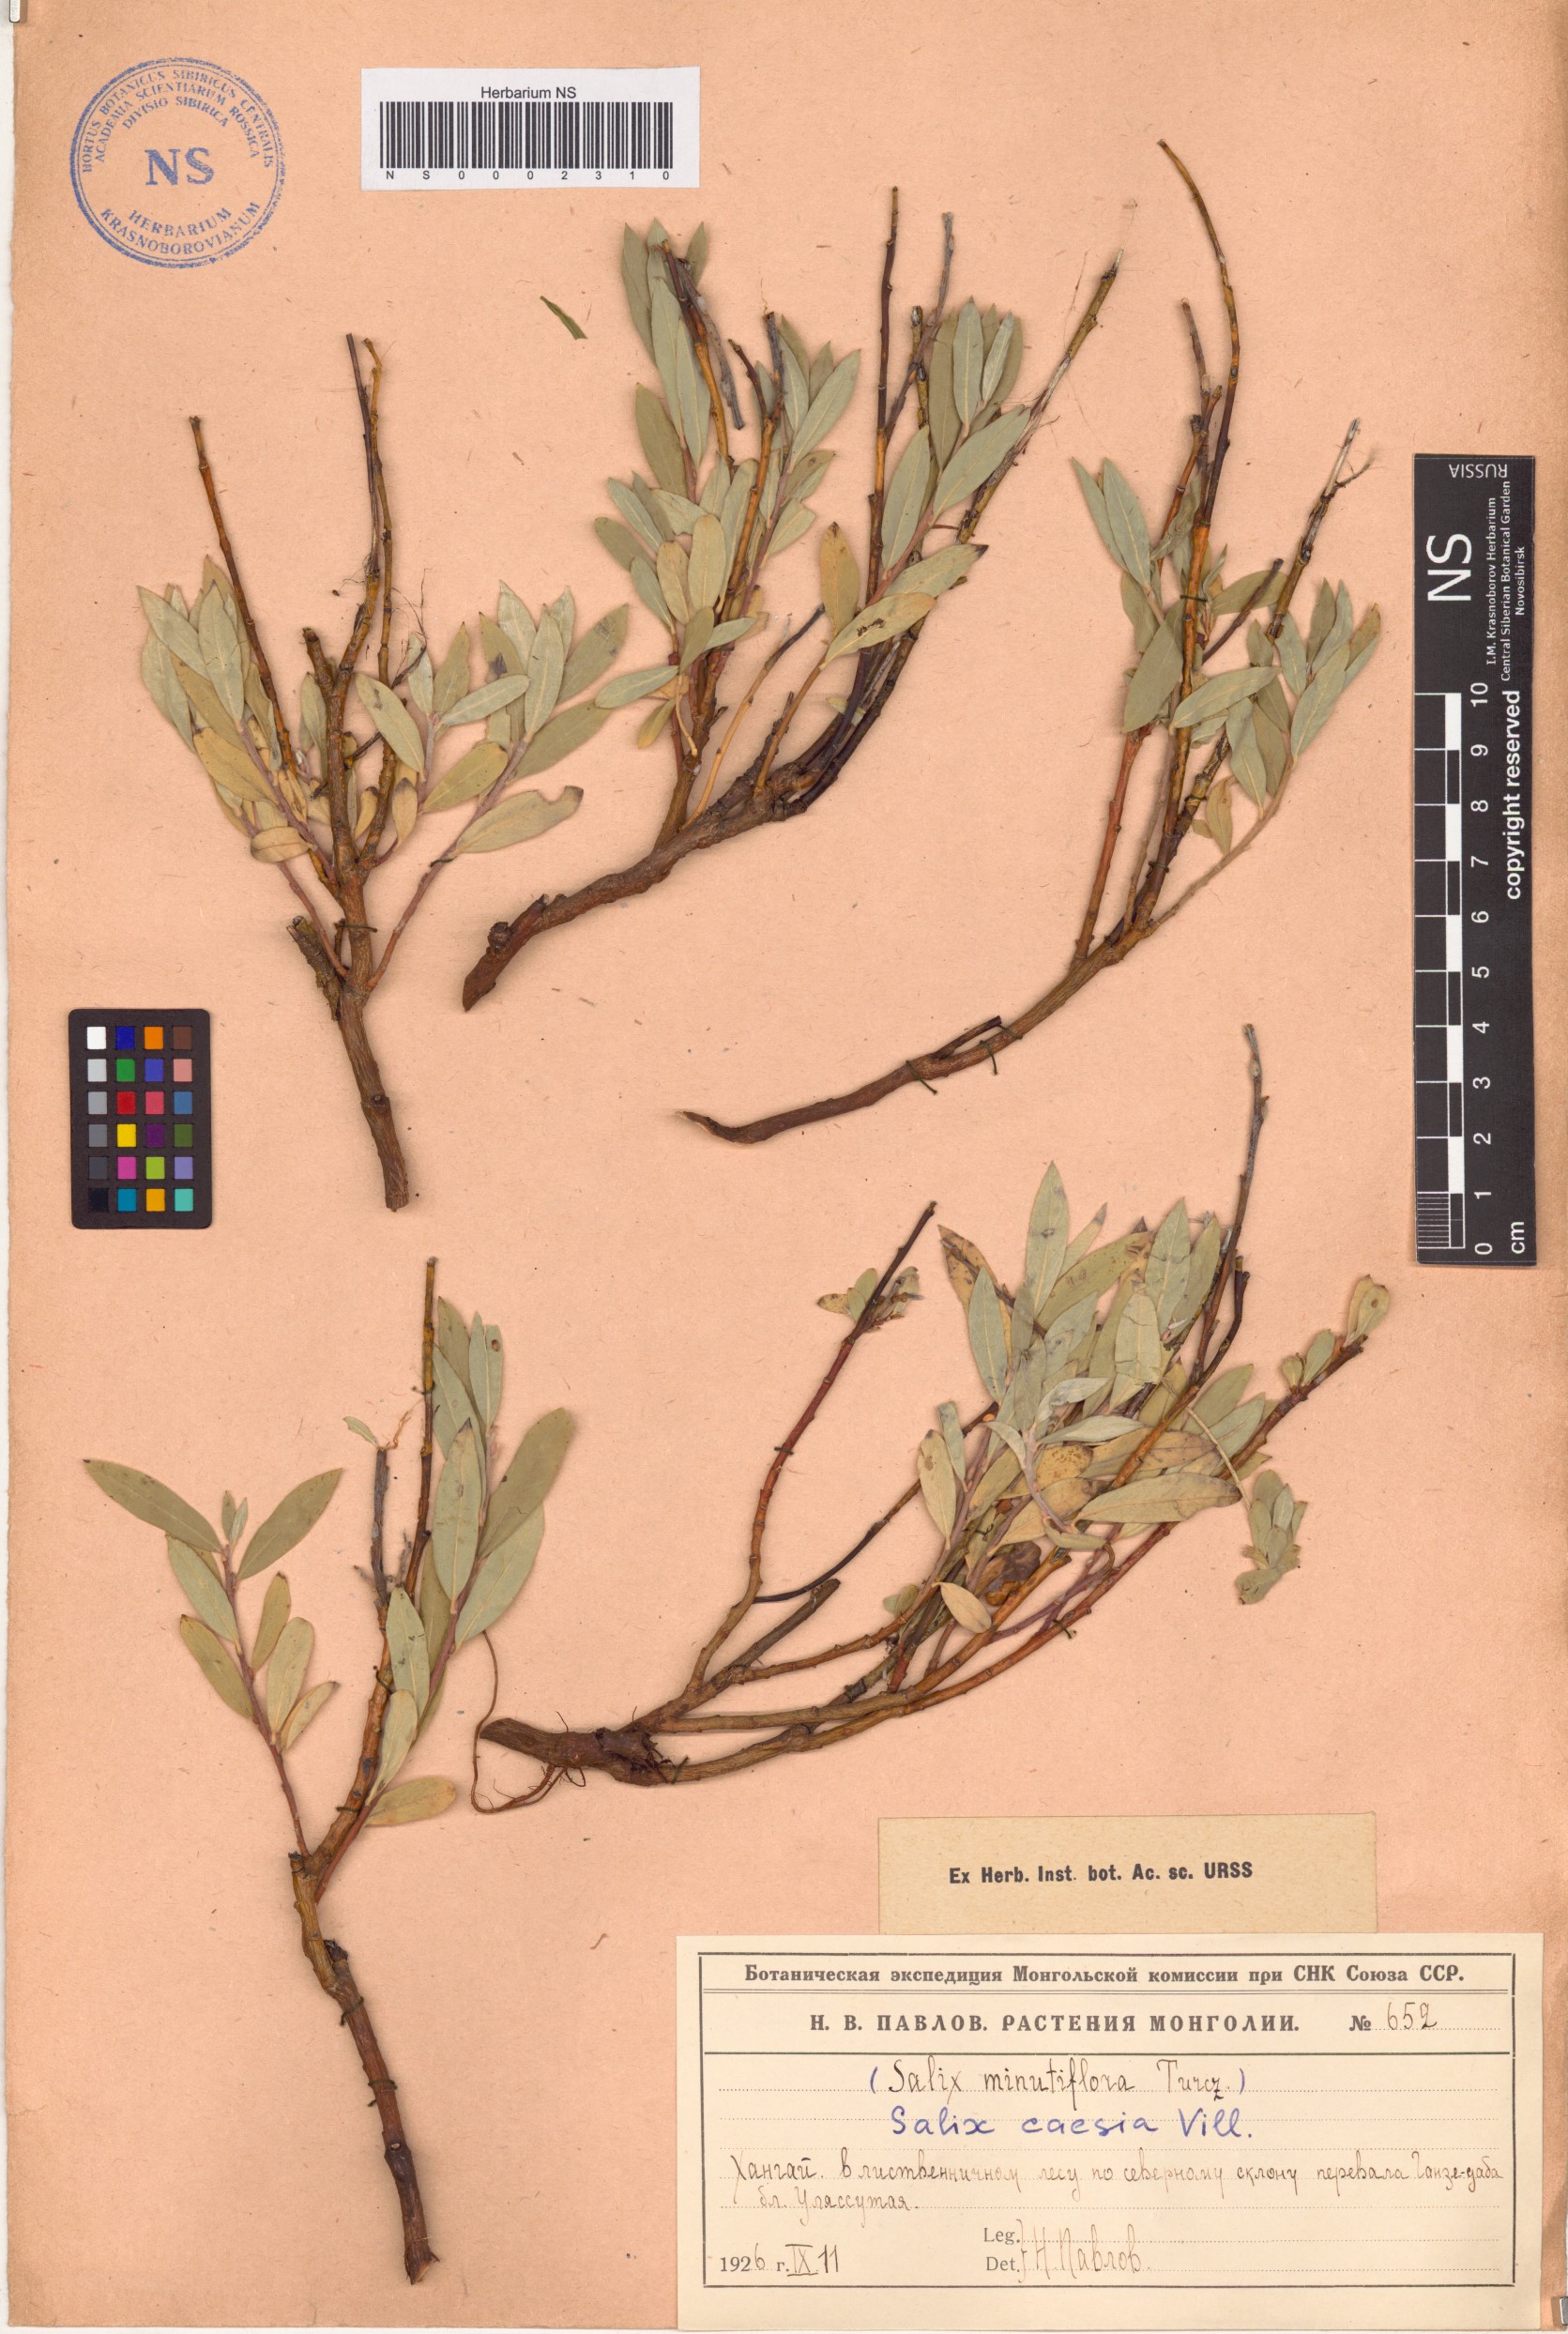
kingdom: Plantae
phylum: Tracheophyta
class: Magnoliopsida
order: Malpighiales
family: Salicaceae
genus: Salix
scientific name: Salix caesia
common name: Blue willow
